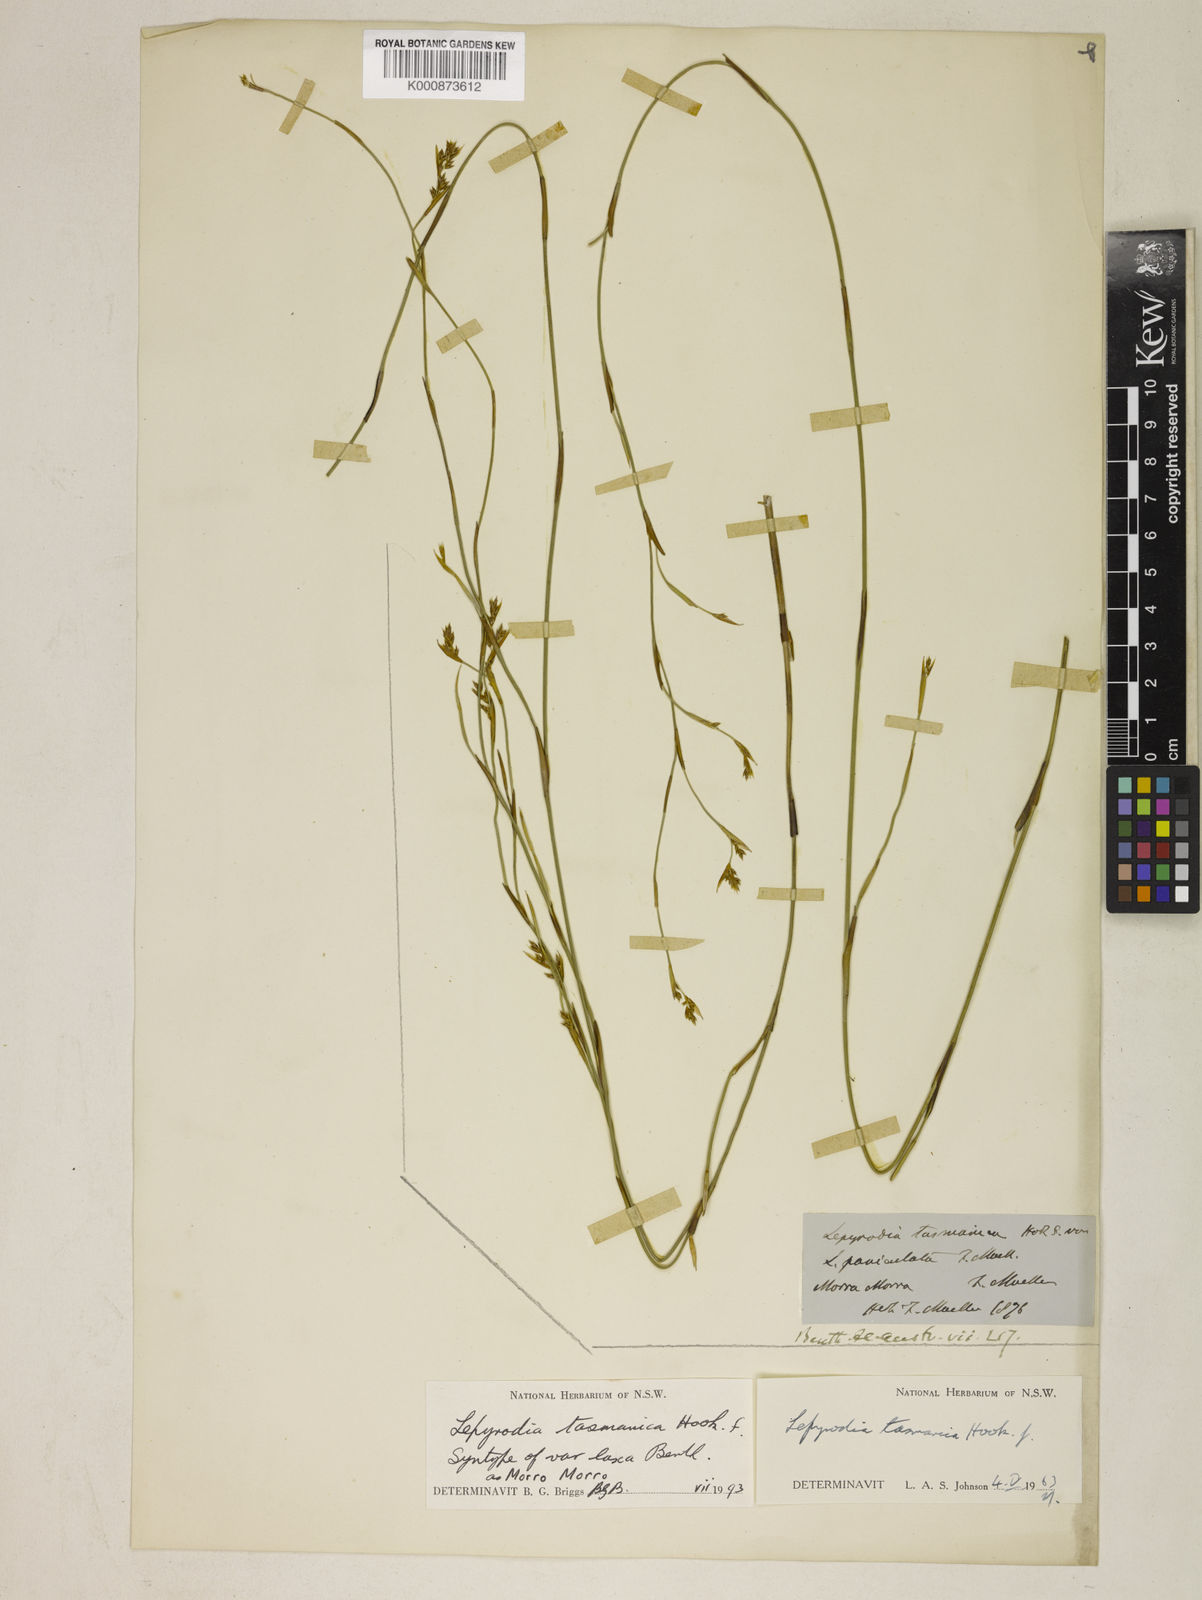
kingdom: Plantae
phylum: Tracheophyta
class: Liliopsida
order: Poales
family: Restionaceae
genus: Sporadanthus
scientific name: Sporadanthus tasmanicus
